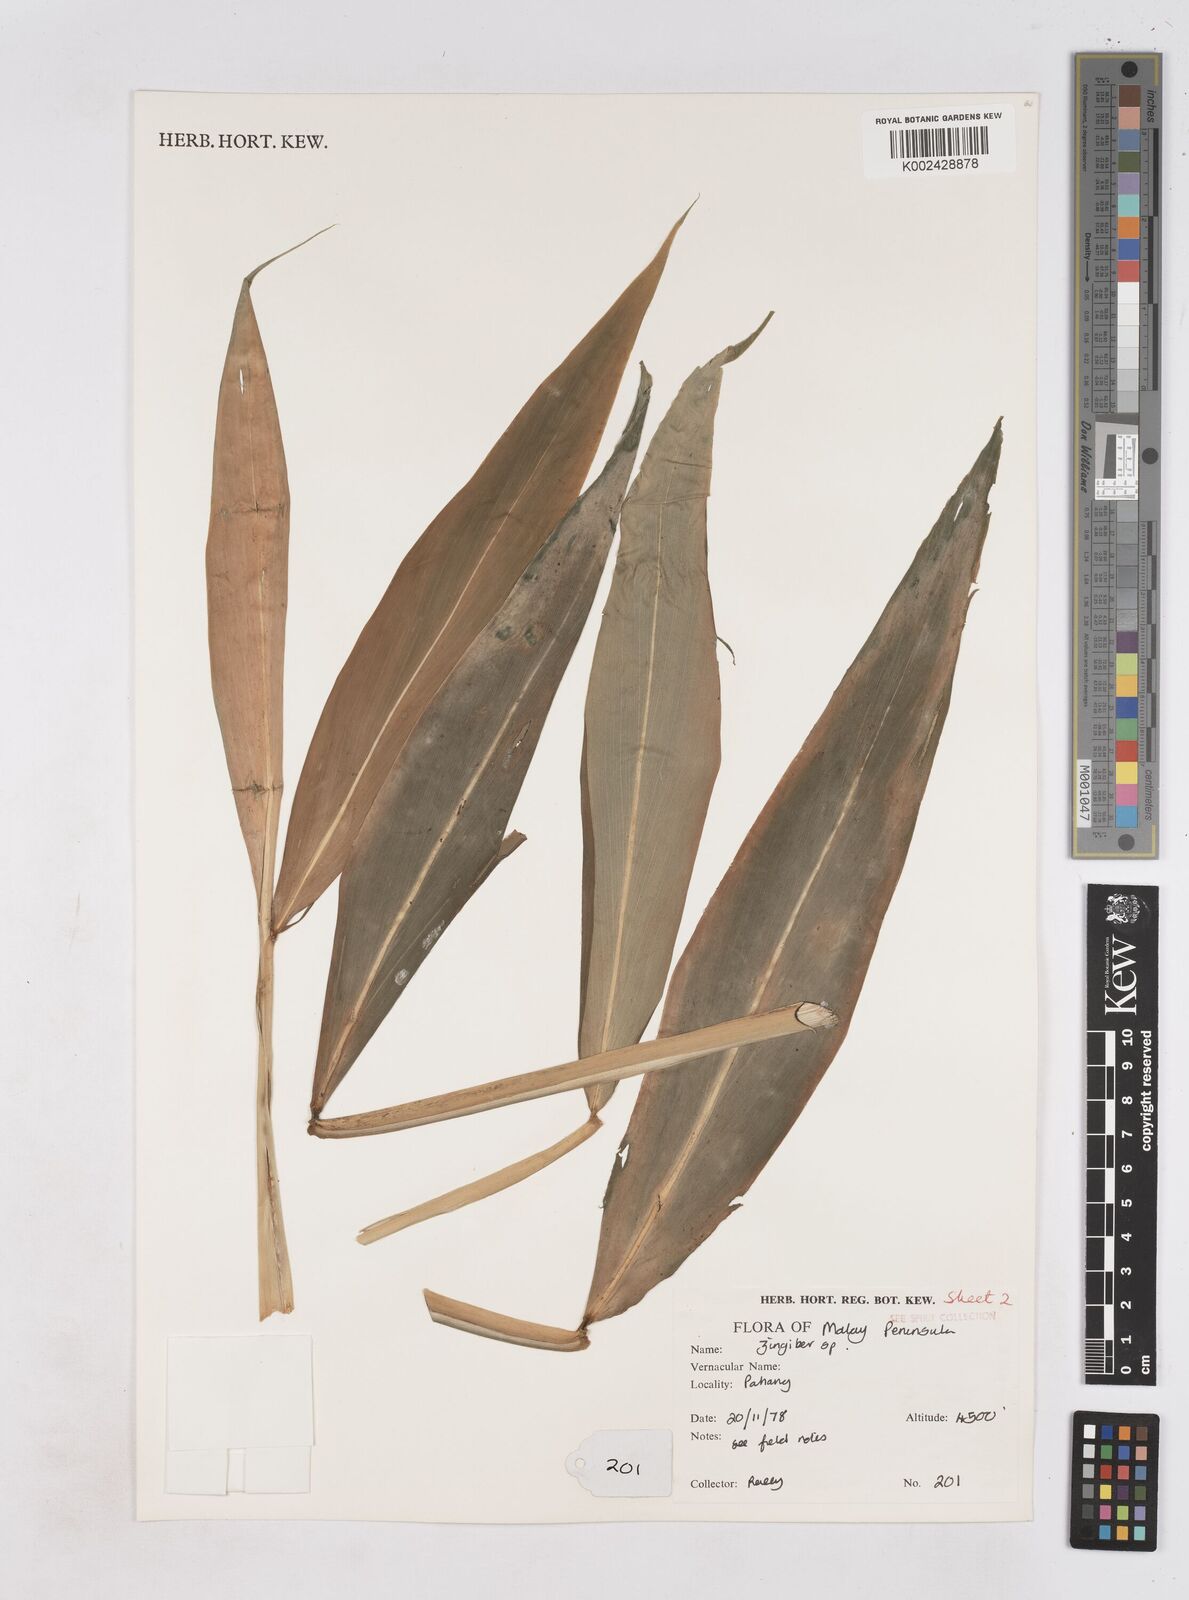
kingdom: Plantae
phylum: Tracheophyta
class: Liliopsida
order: Zingiberales
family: Zingiberaceae
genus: Zingiber
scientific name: Zingiber
